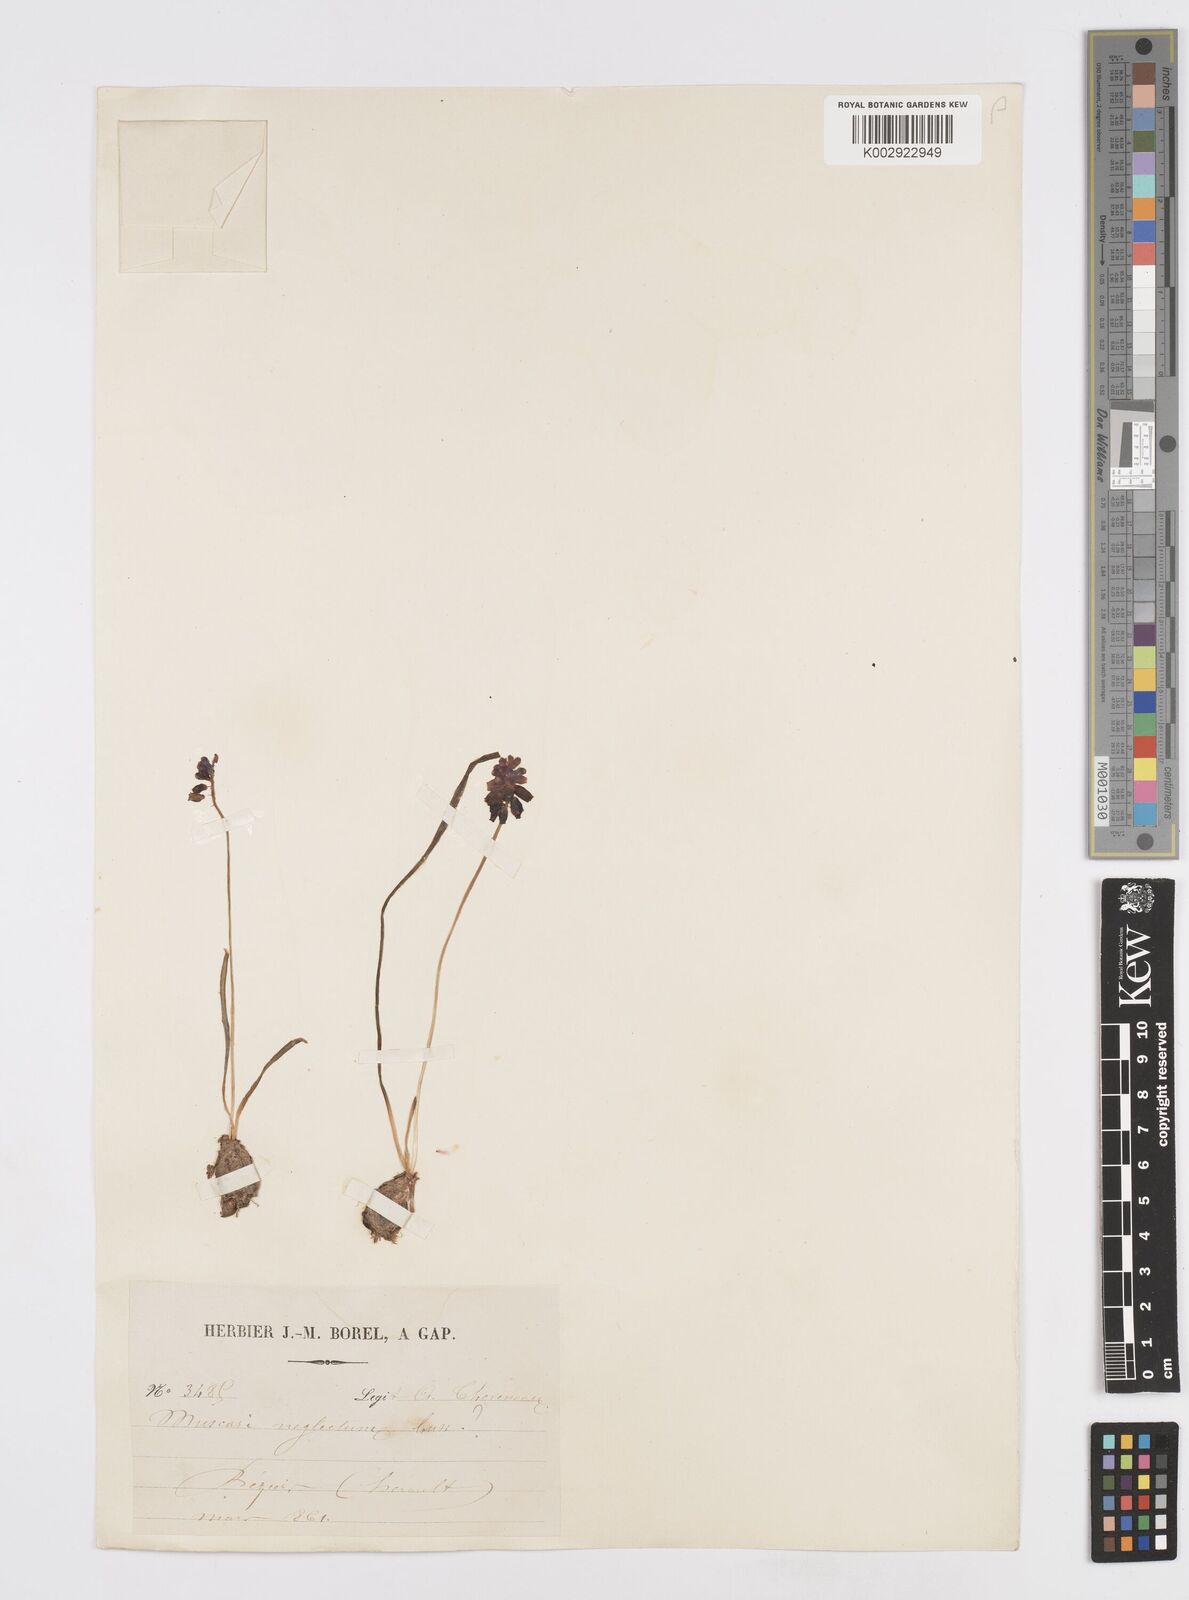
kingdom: Plantae
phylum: Tracheophyta
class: Liliopsida
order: Asparagales
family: Asparagaceae
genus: Muscari
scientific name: Muscari neglectum
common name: Grape-hyacinth
